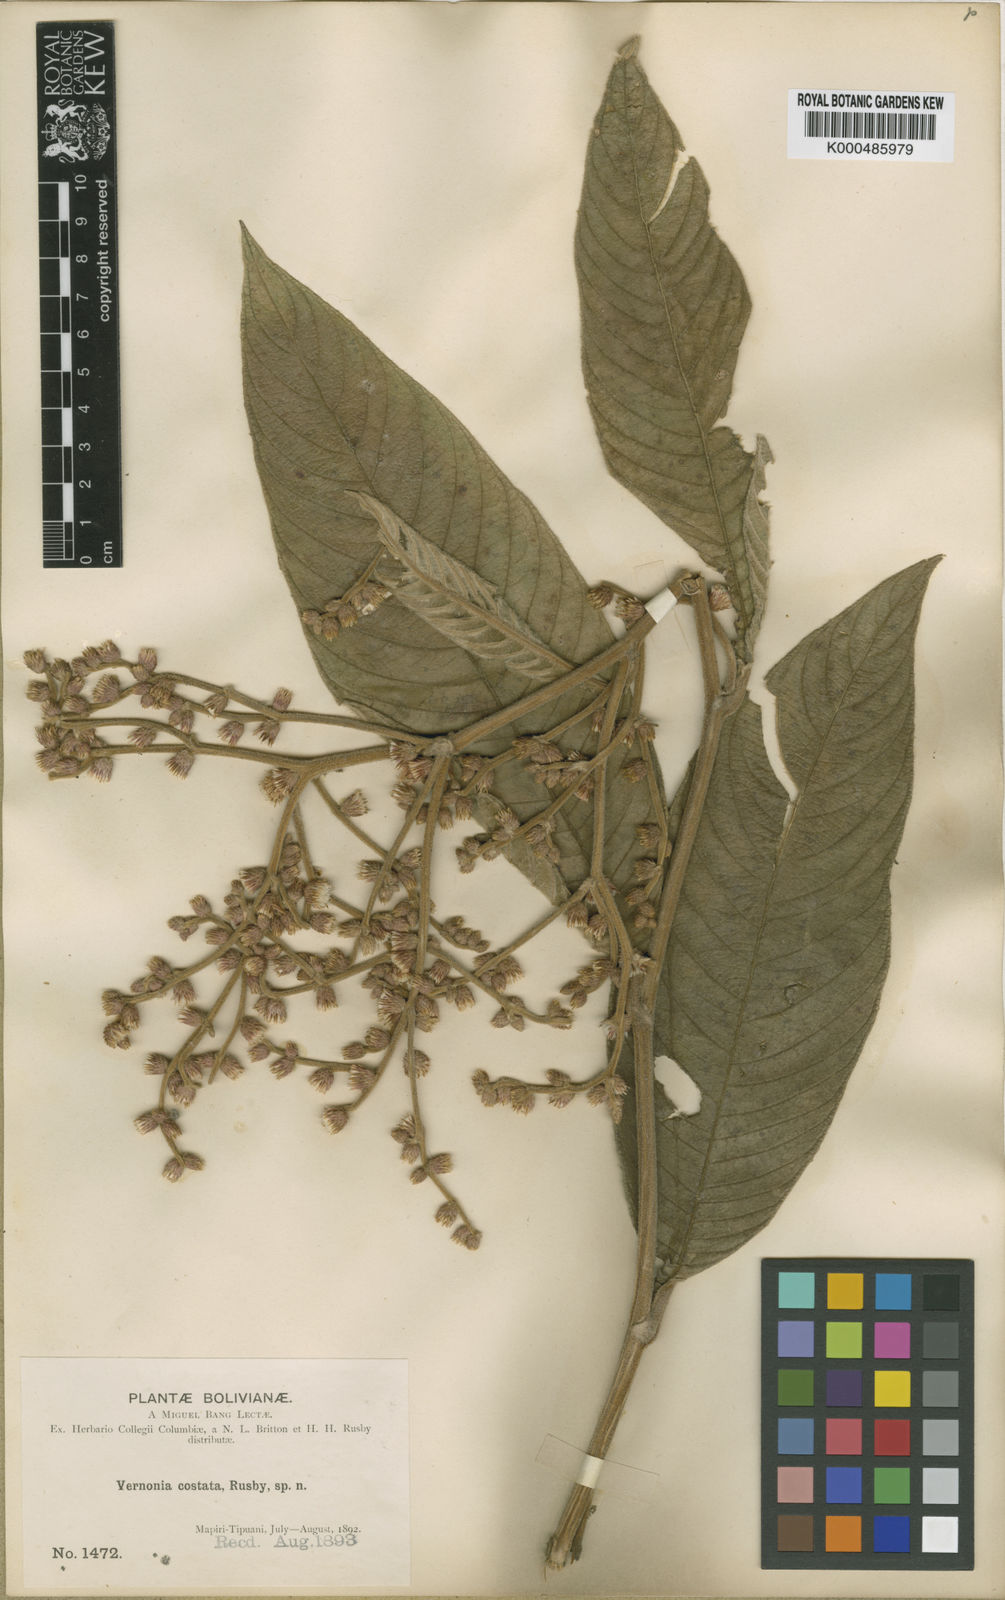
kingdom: Plantae
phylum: Tracheophyta
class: Magnoliopsida
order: Asterales
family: Asteraceae
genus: Lepidaploa
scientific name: Lepidaploa costata
